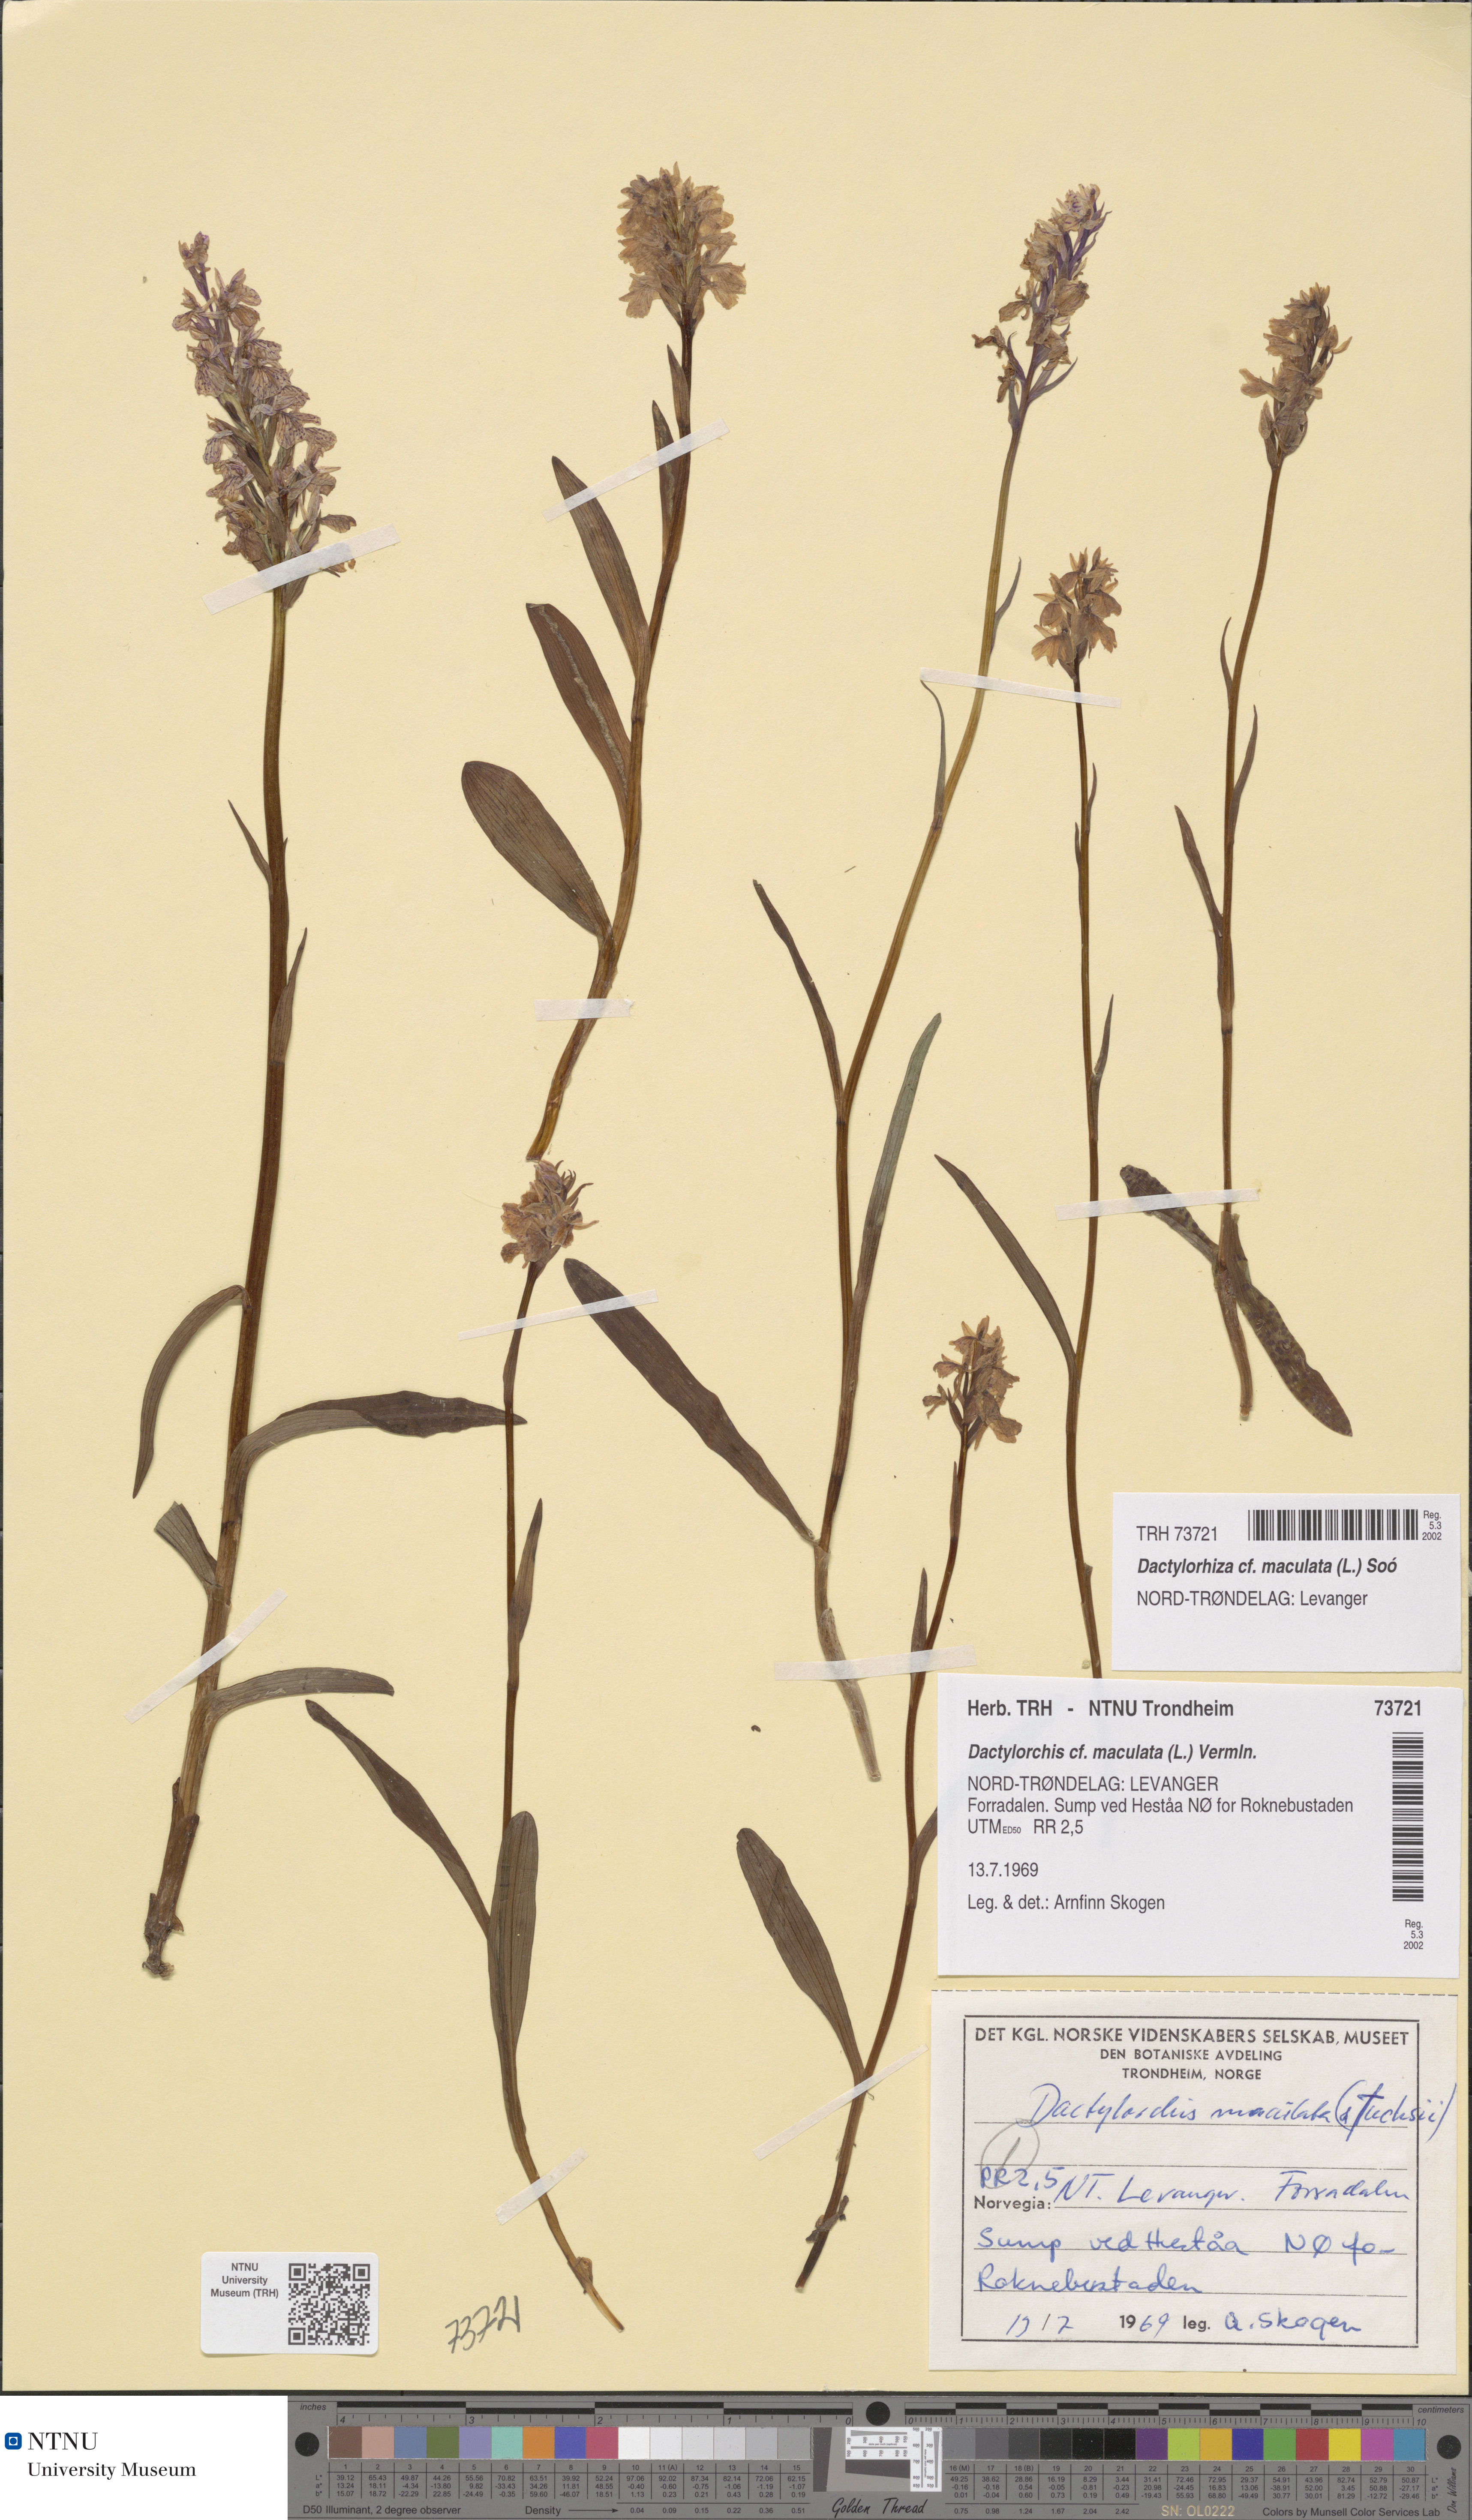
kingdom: Plantae
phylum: Tracheophyta
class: Liliopsida
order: Asparagales
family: Orchidaceae
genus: Dactylorhiza
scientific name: Dactylorhiza maculata
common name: Heath spotted-orchid
